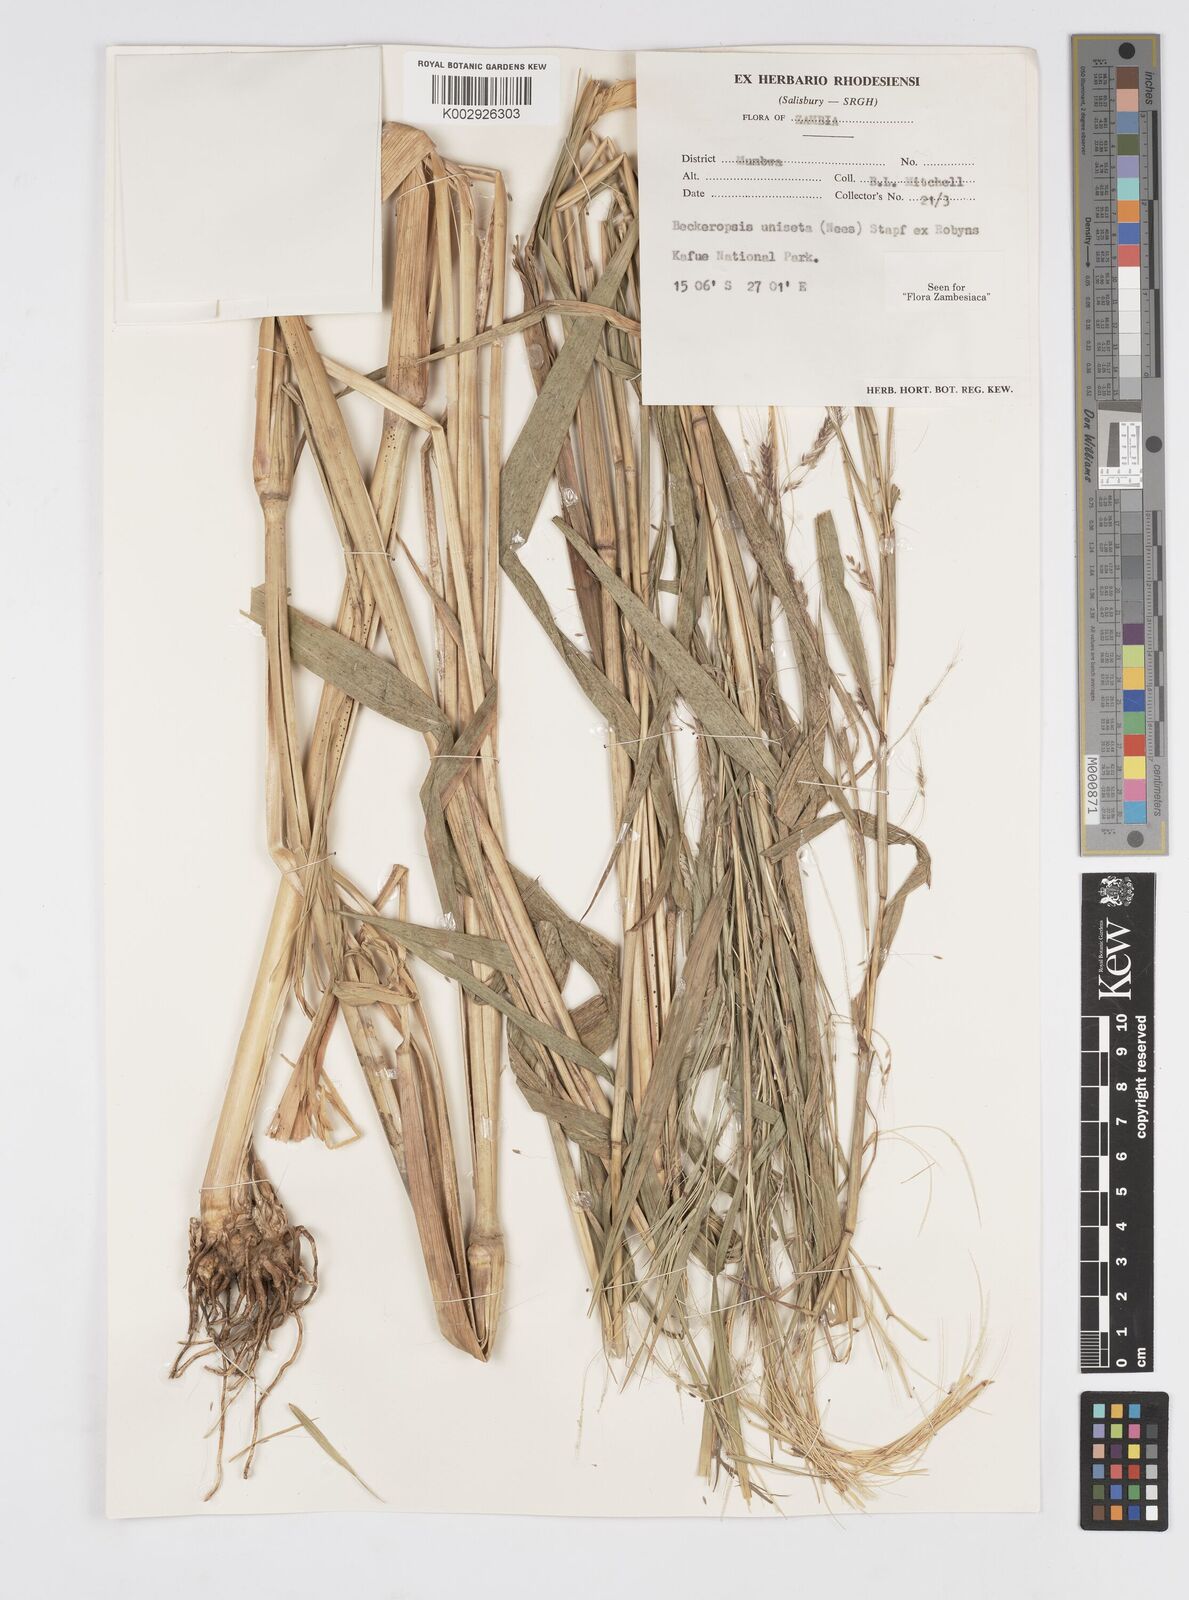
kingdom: Plantae
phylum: Tracheophyta
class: Liliopsida
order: Poales
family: Poaceae
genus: Cenchrus
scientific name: Cenchrus unisetus
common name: Natal grass
